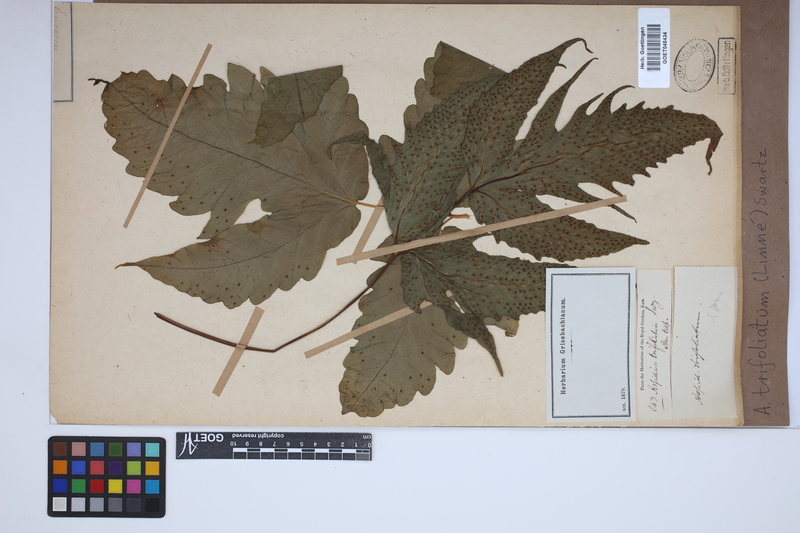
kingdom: Plantae
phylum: Tracheophyta
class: Polypodiopsida
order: Polypodiales
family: Tectariaceae
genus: Tectaria
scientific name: Tectaria trifoliata
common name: Threeleaf halberd fern
